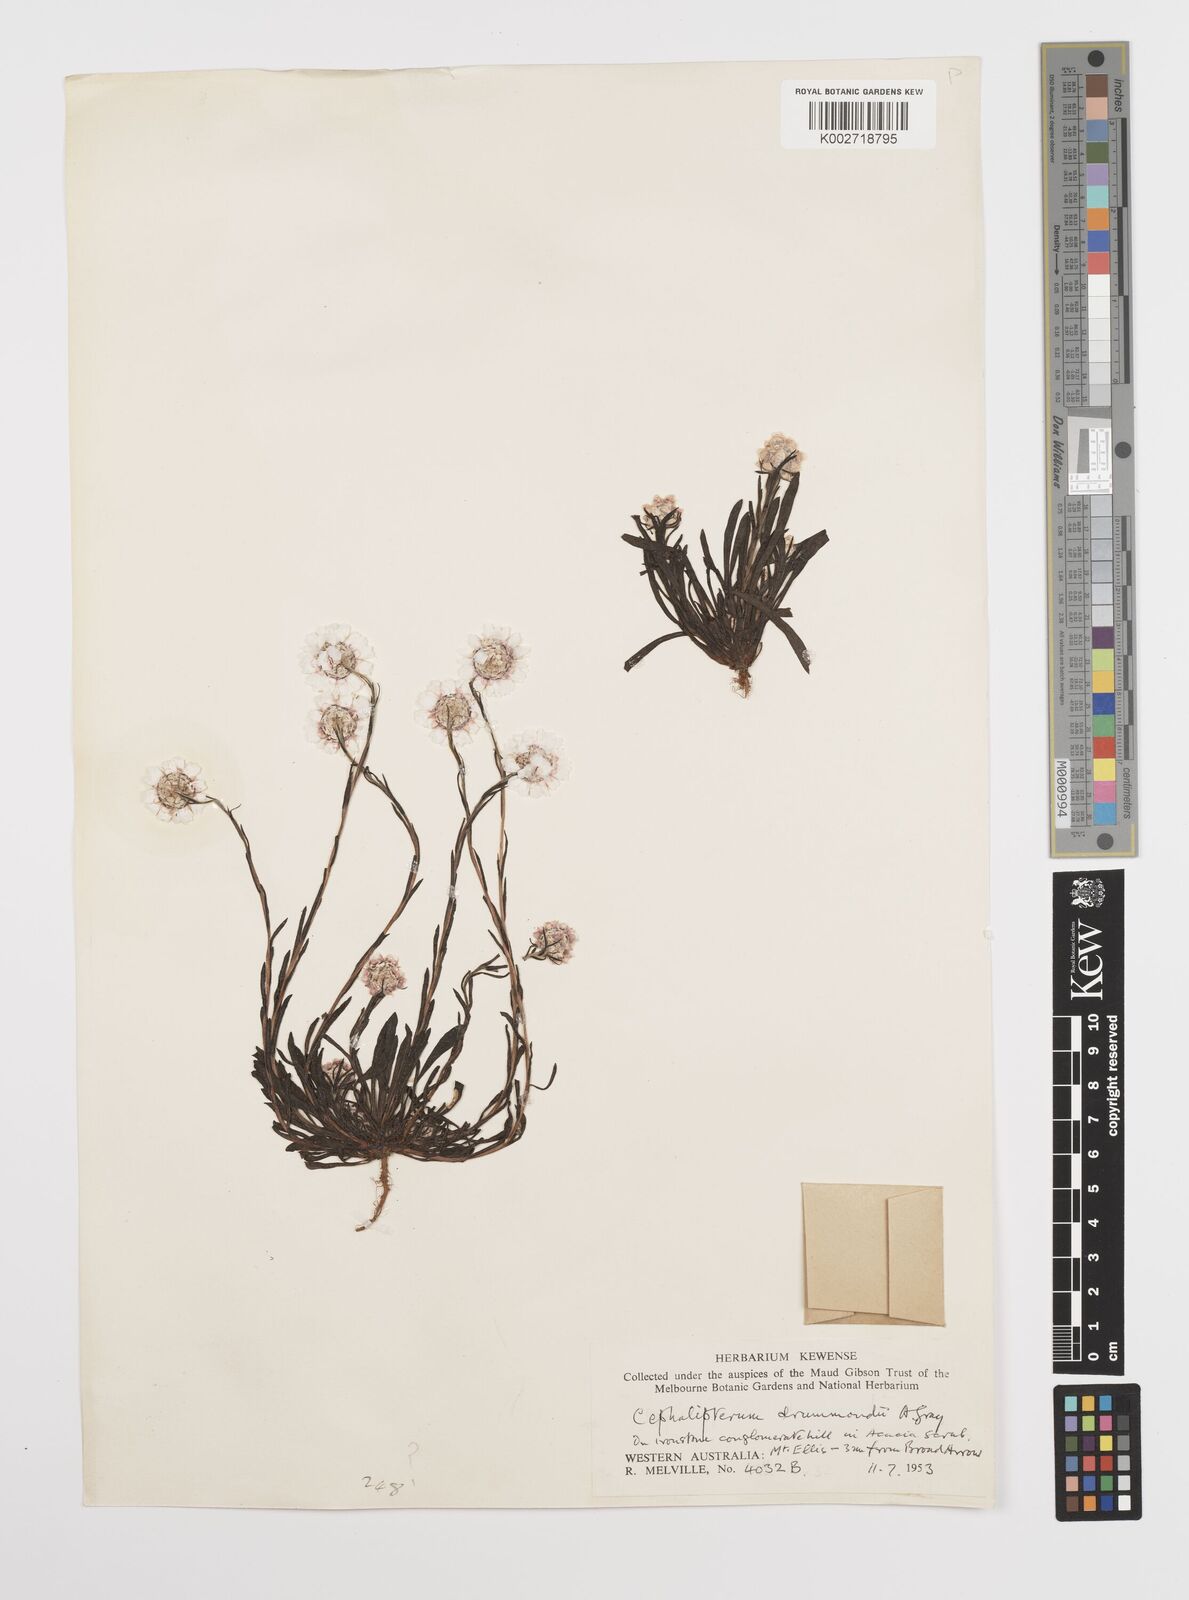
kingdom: Plantae
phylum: Tracheophyta
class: Magnoliopsida
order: Asterales
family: Asteraceae
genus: Cephalipterum
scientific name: Cephalipterum drummondii
